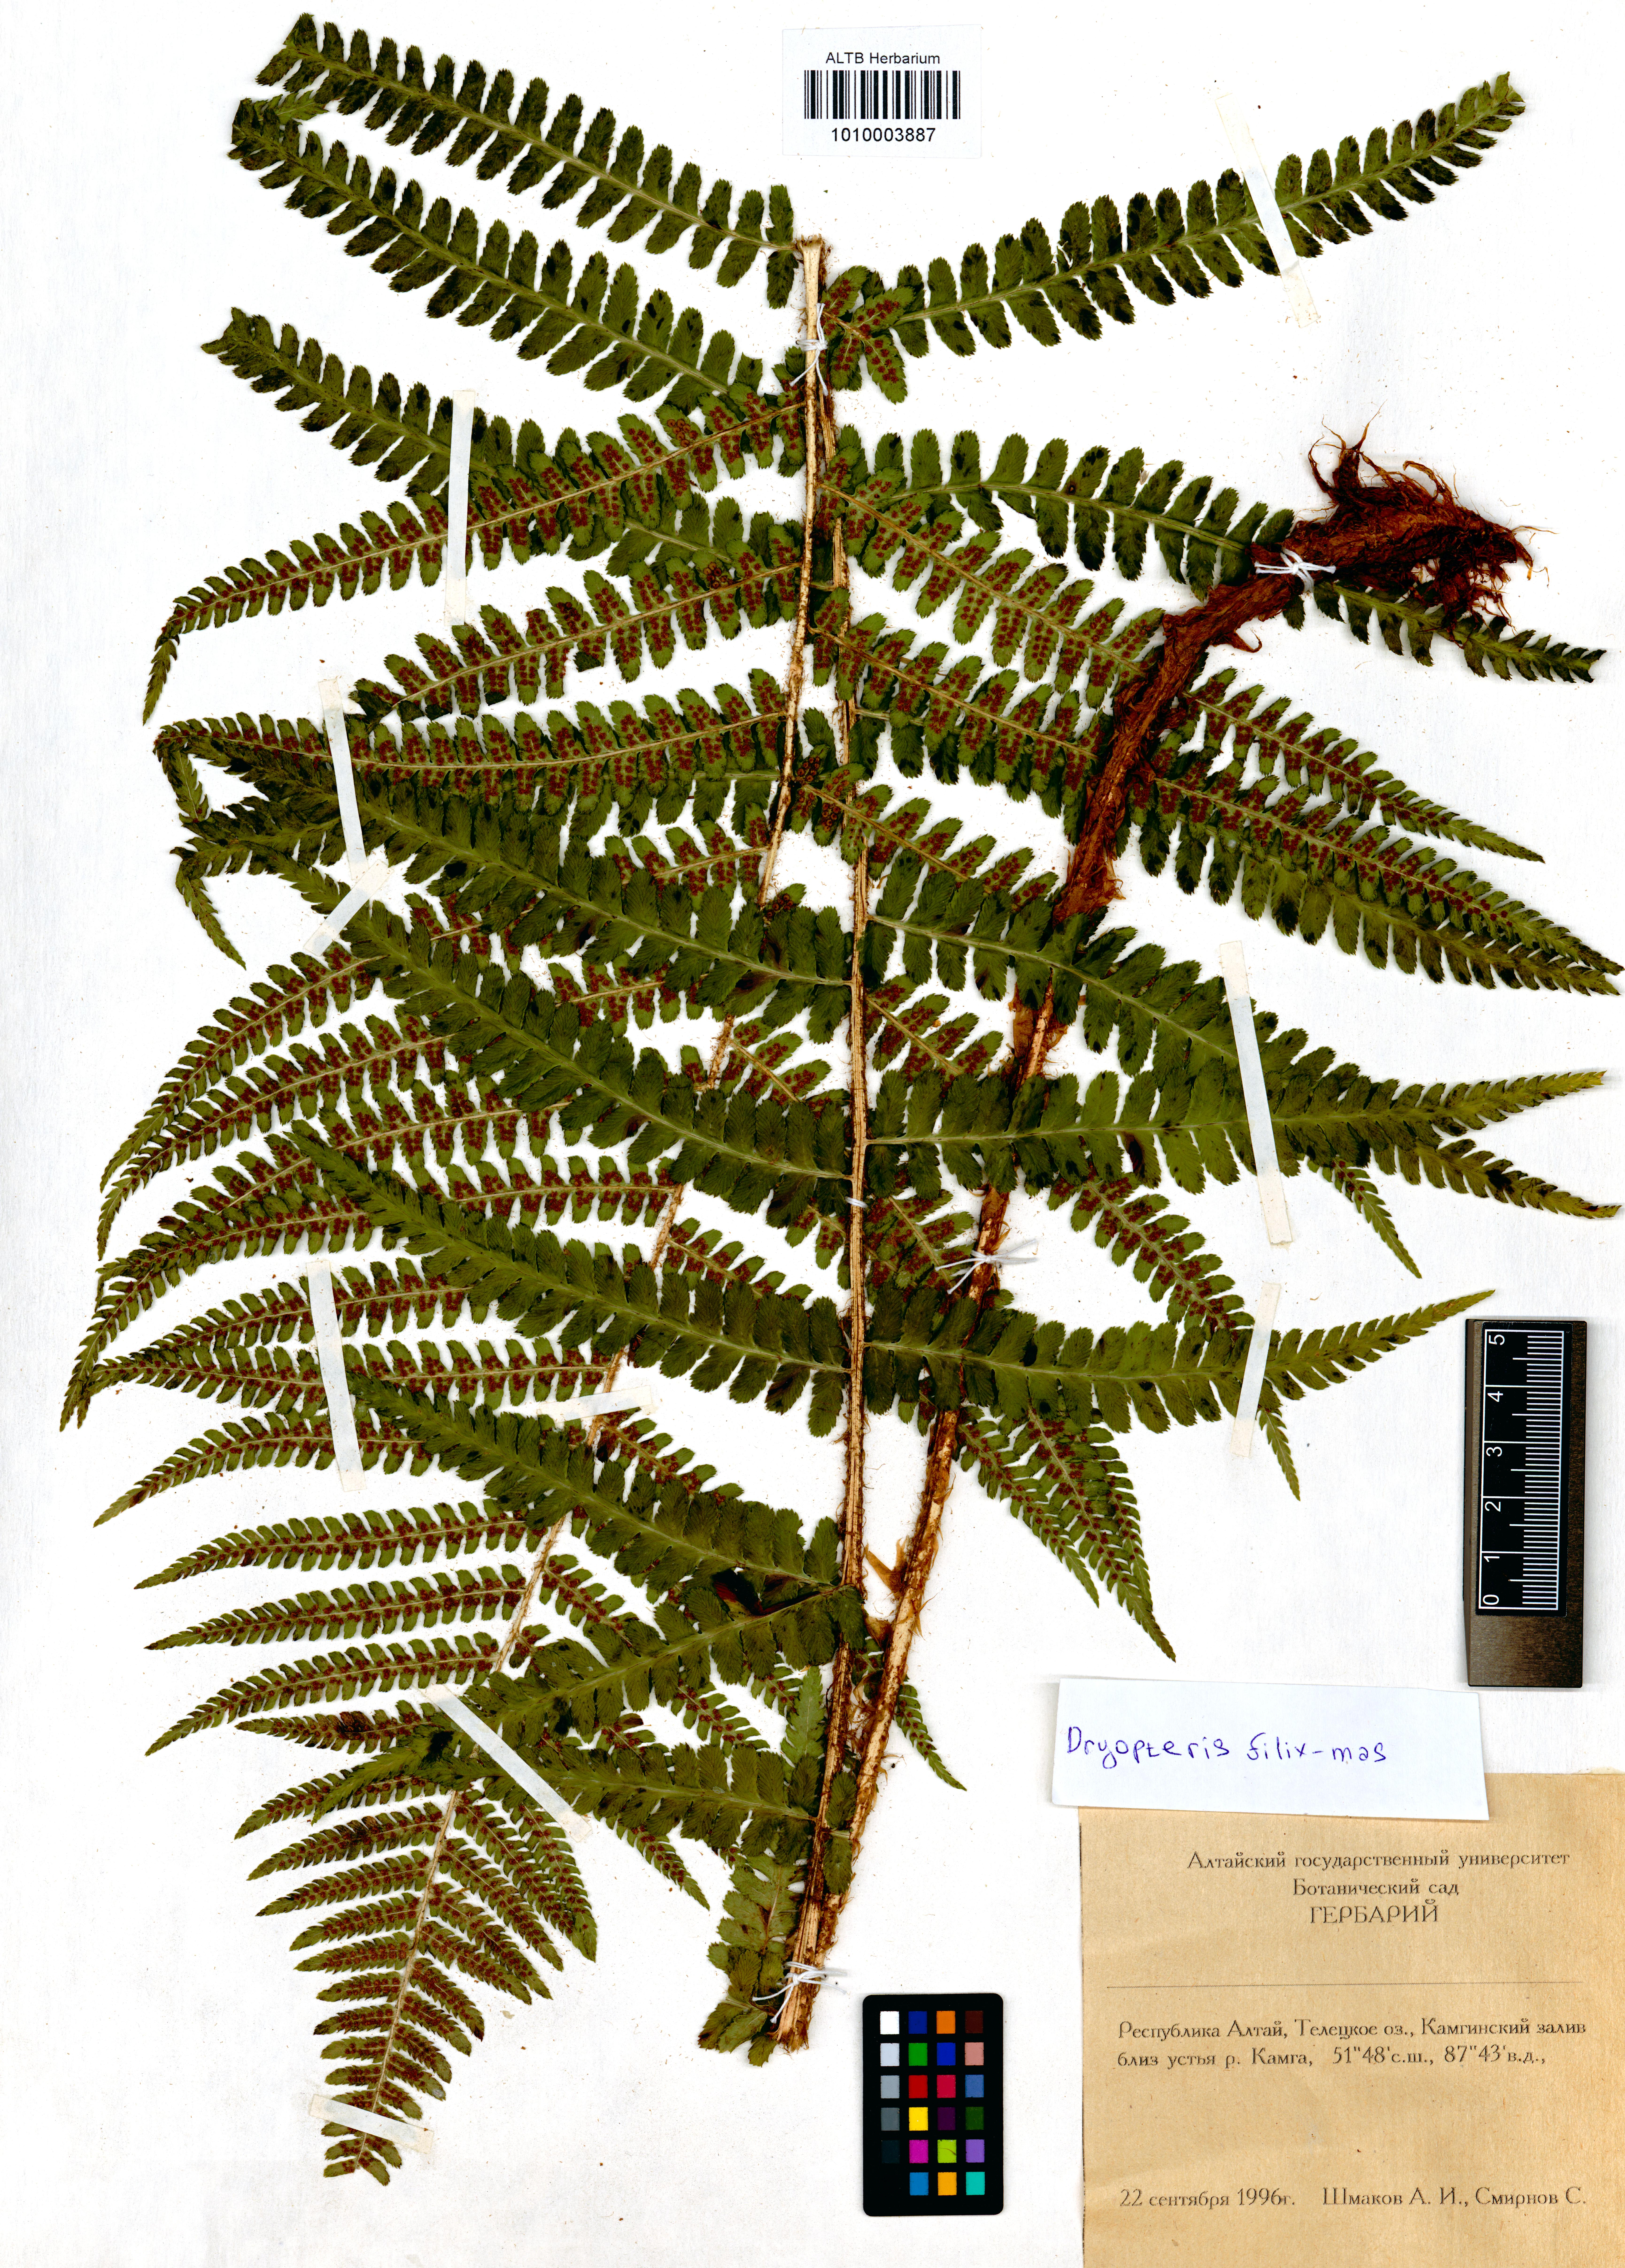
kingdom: Plantae
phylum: Tracheophyta
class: Polypodiopsida
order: Polypodiales
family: Dryopteridaceae
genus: Dryopteris
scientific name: Dryopteris filix-mas
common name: Male fern
